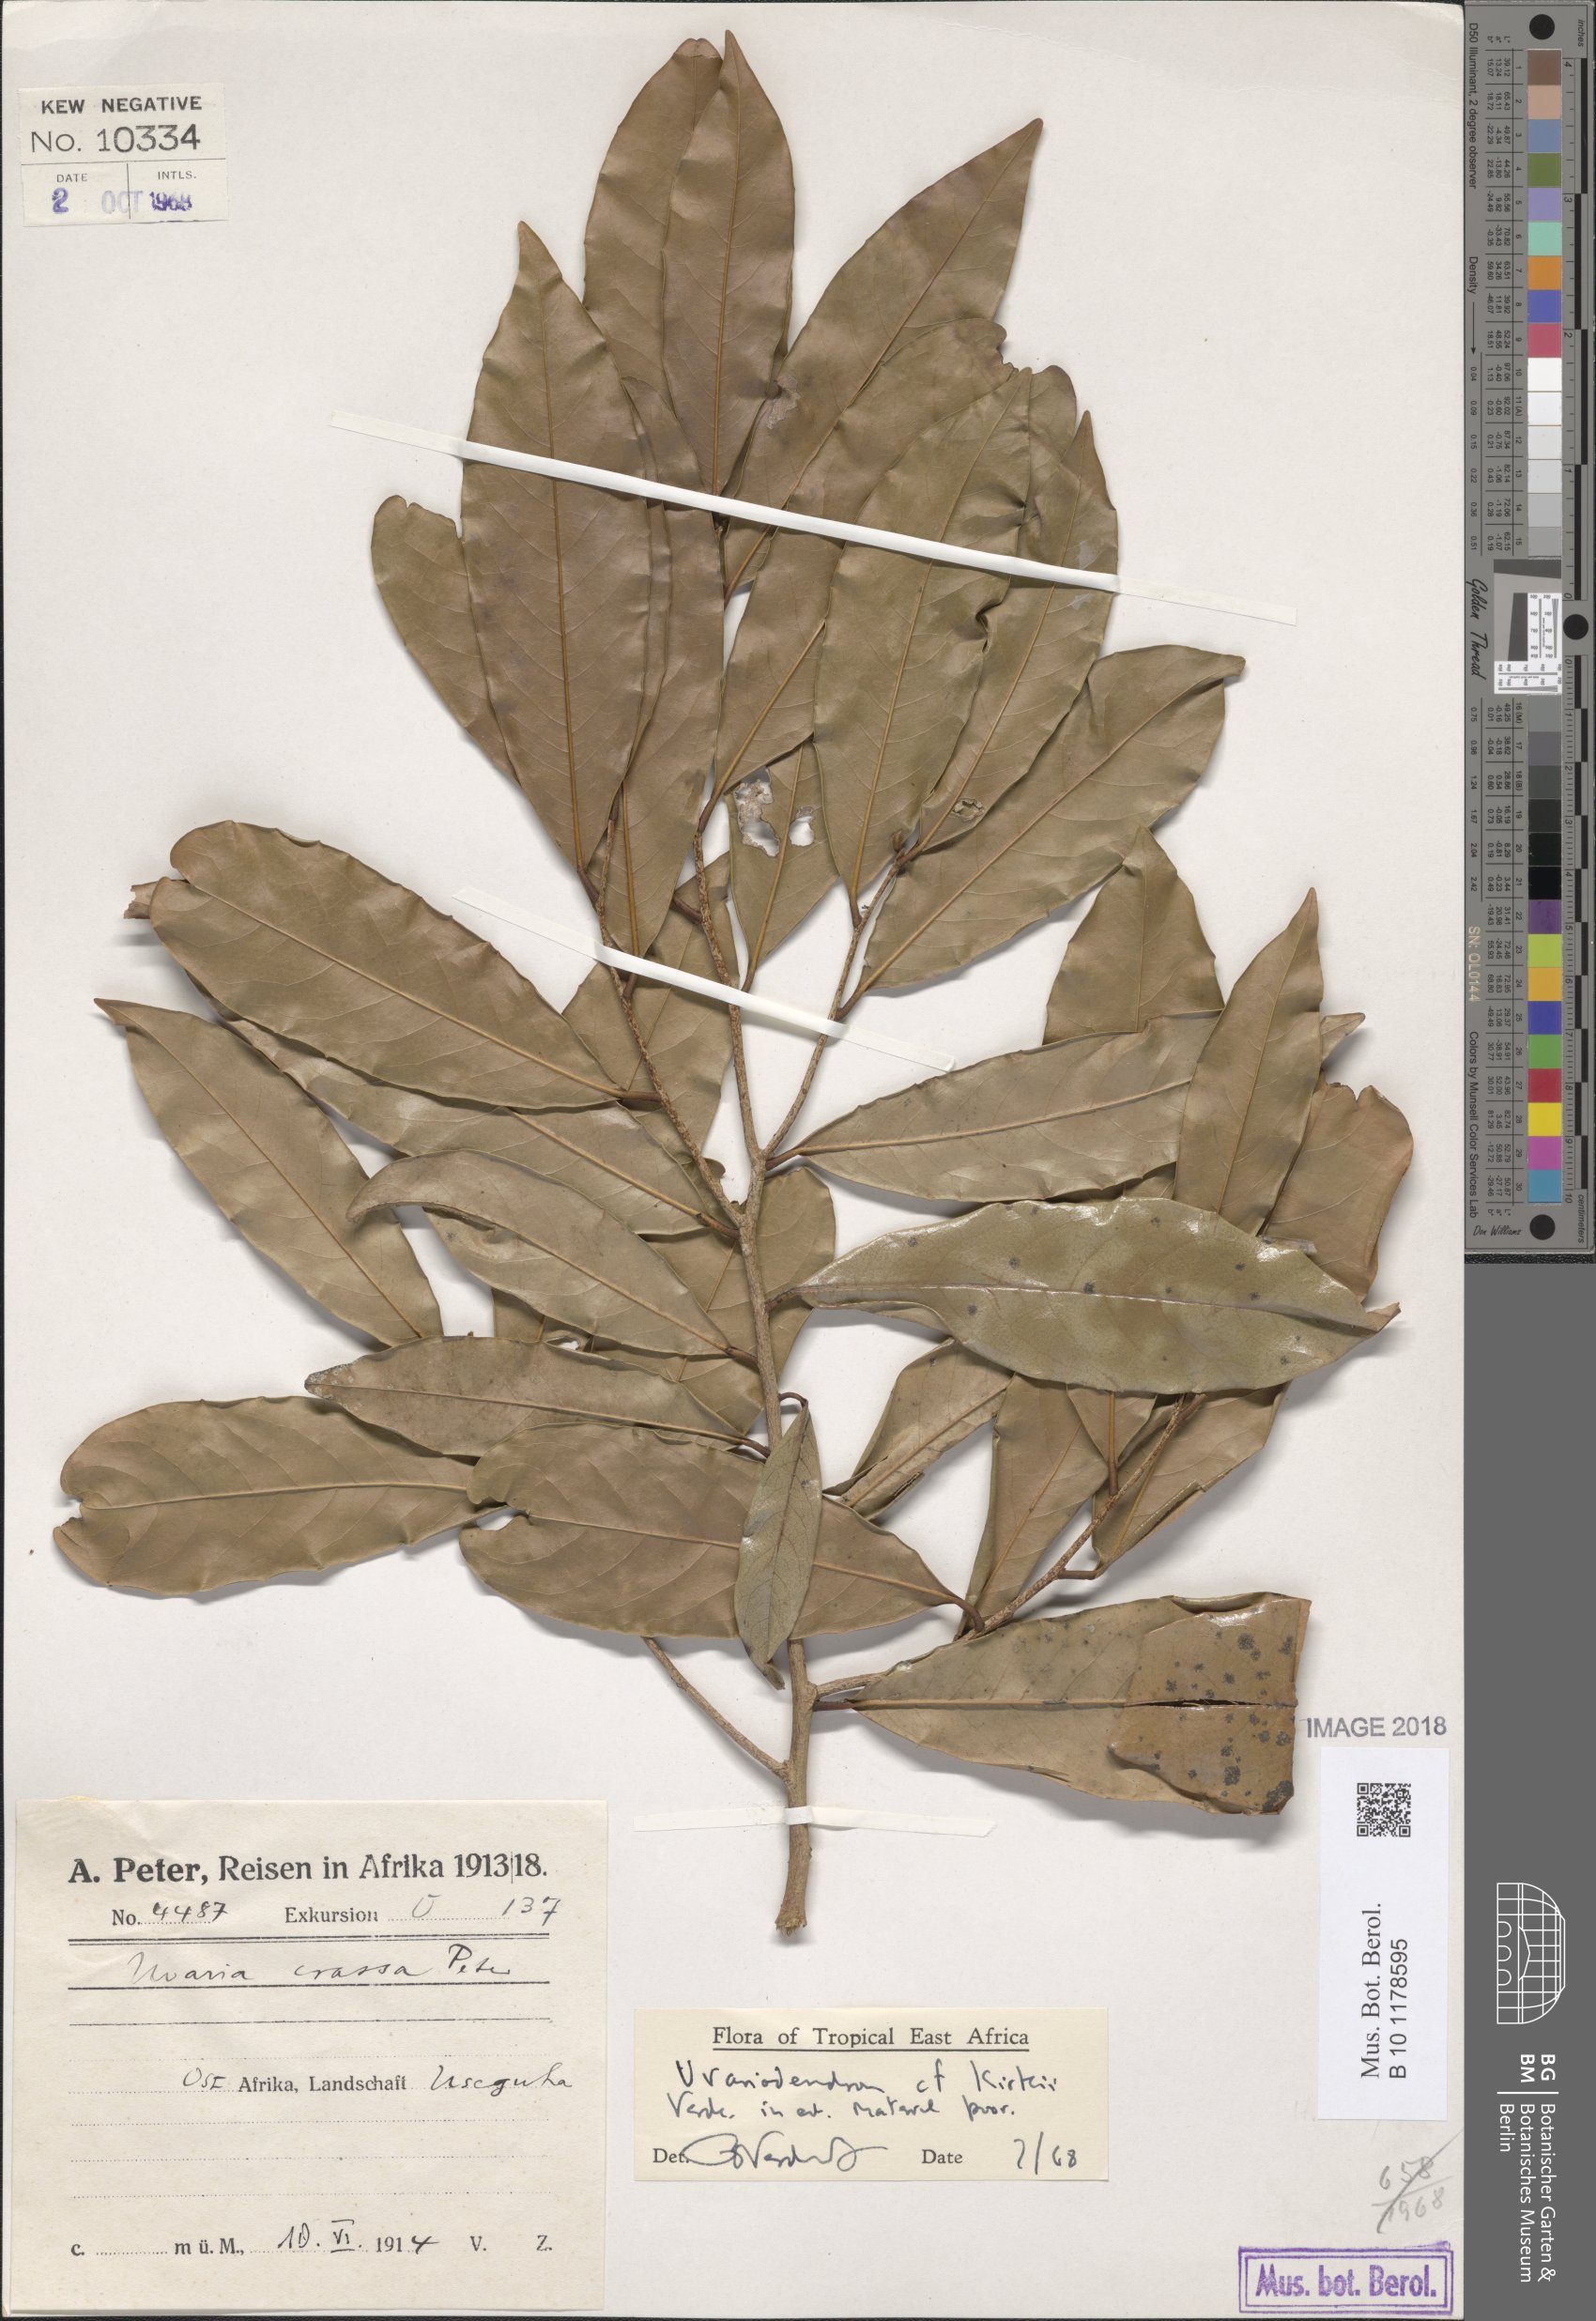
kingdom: Plantae
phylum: Tracheophyta
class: Magnoliopsida
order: Magnoliales
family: Annonaceae
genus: Uvariodendron
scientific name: Uvariodendron kirkii
